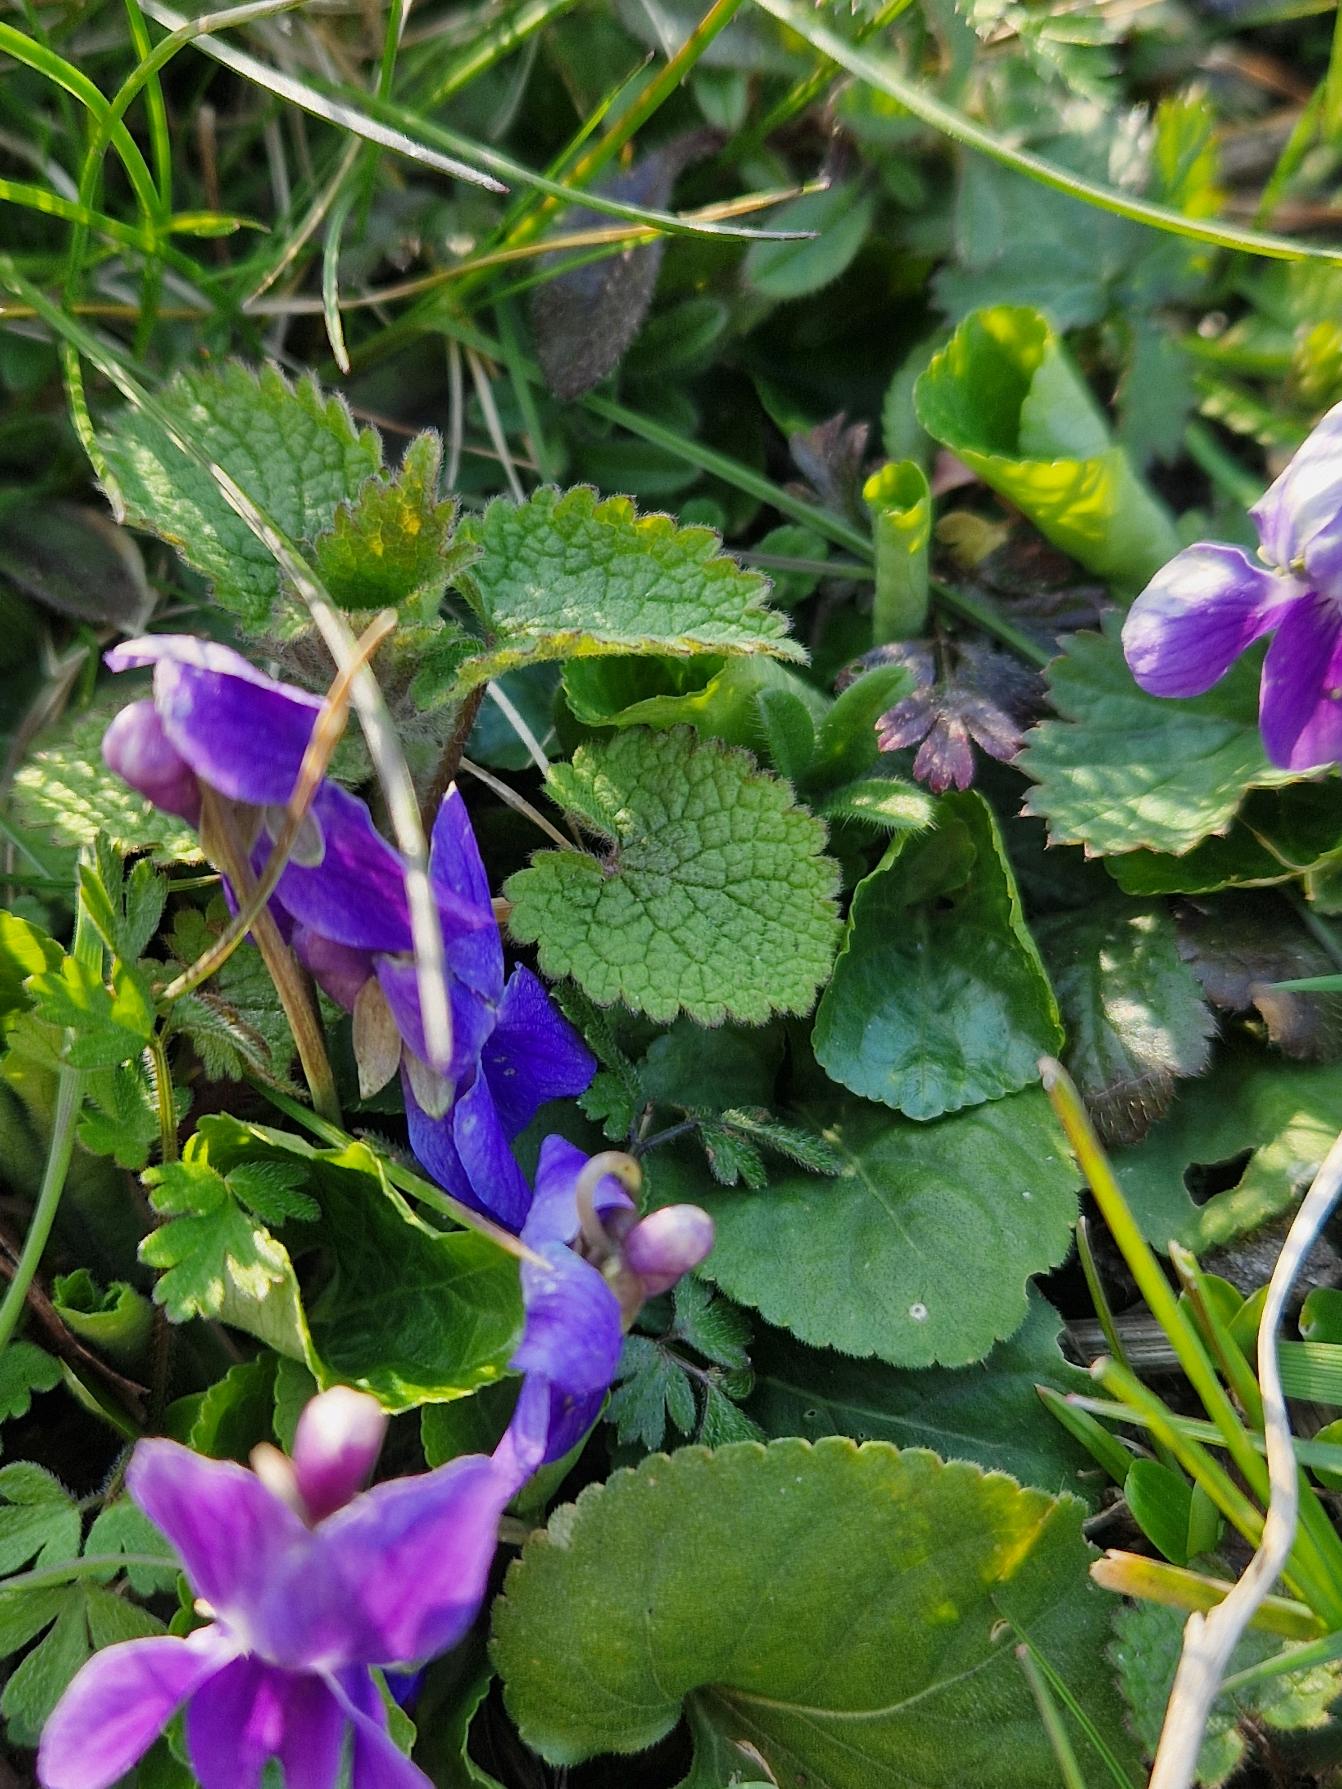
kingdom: Plantae
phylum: Tracheophyta
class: Magnoliopsida
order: Malpighiales
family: Violaceae
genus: Viola
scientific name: Viola odorata
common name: Marts-viol
